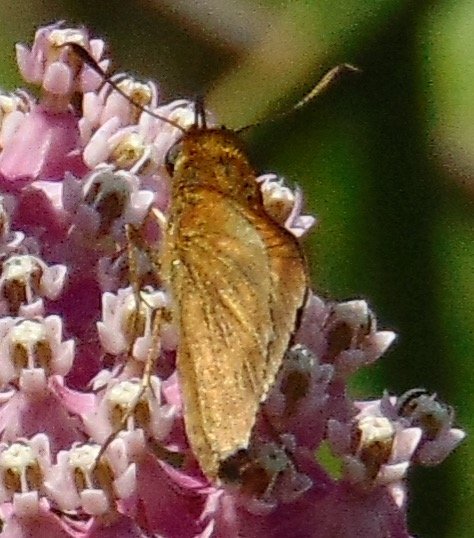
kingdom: Animalia
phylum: Arthropoda
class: Insecta
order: Lepidoptera
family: Hesperiidae
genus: Euphyes
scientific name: Euphyes conspicua
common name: Black Dash
